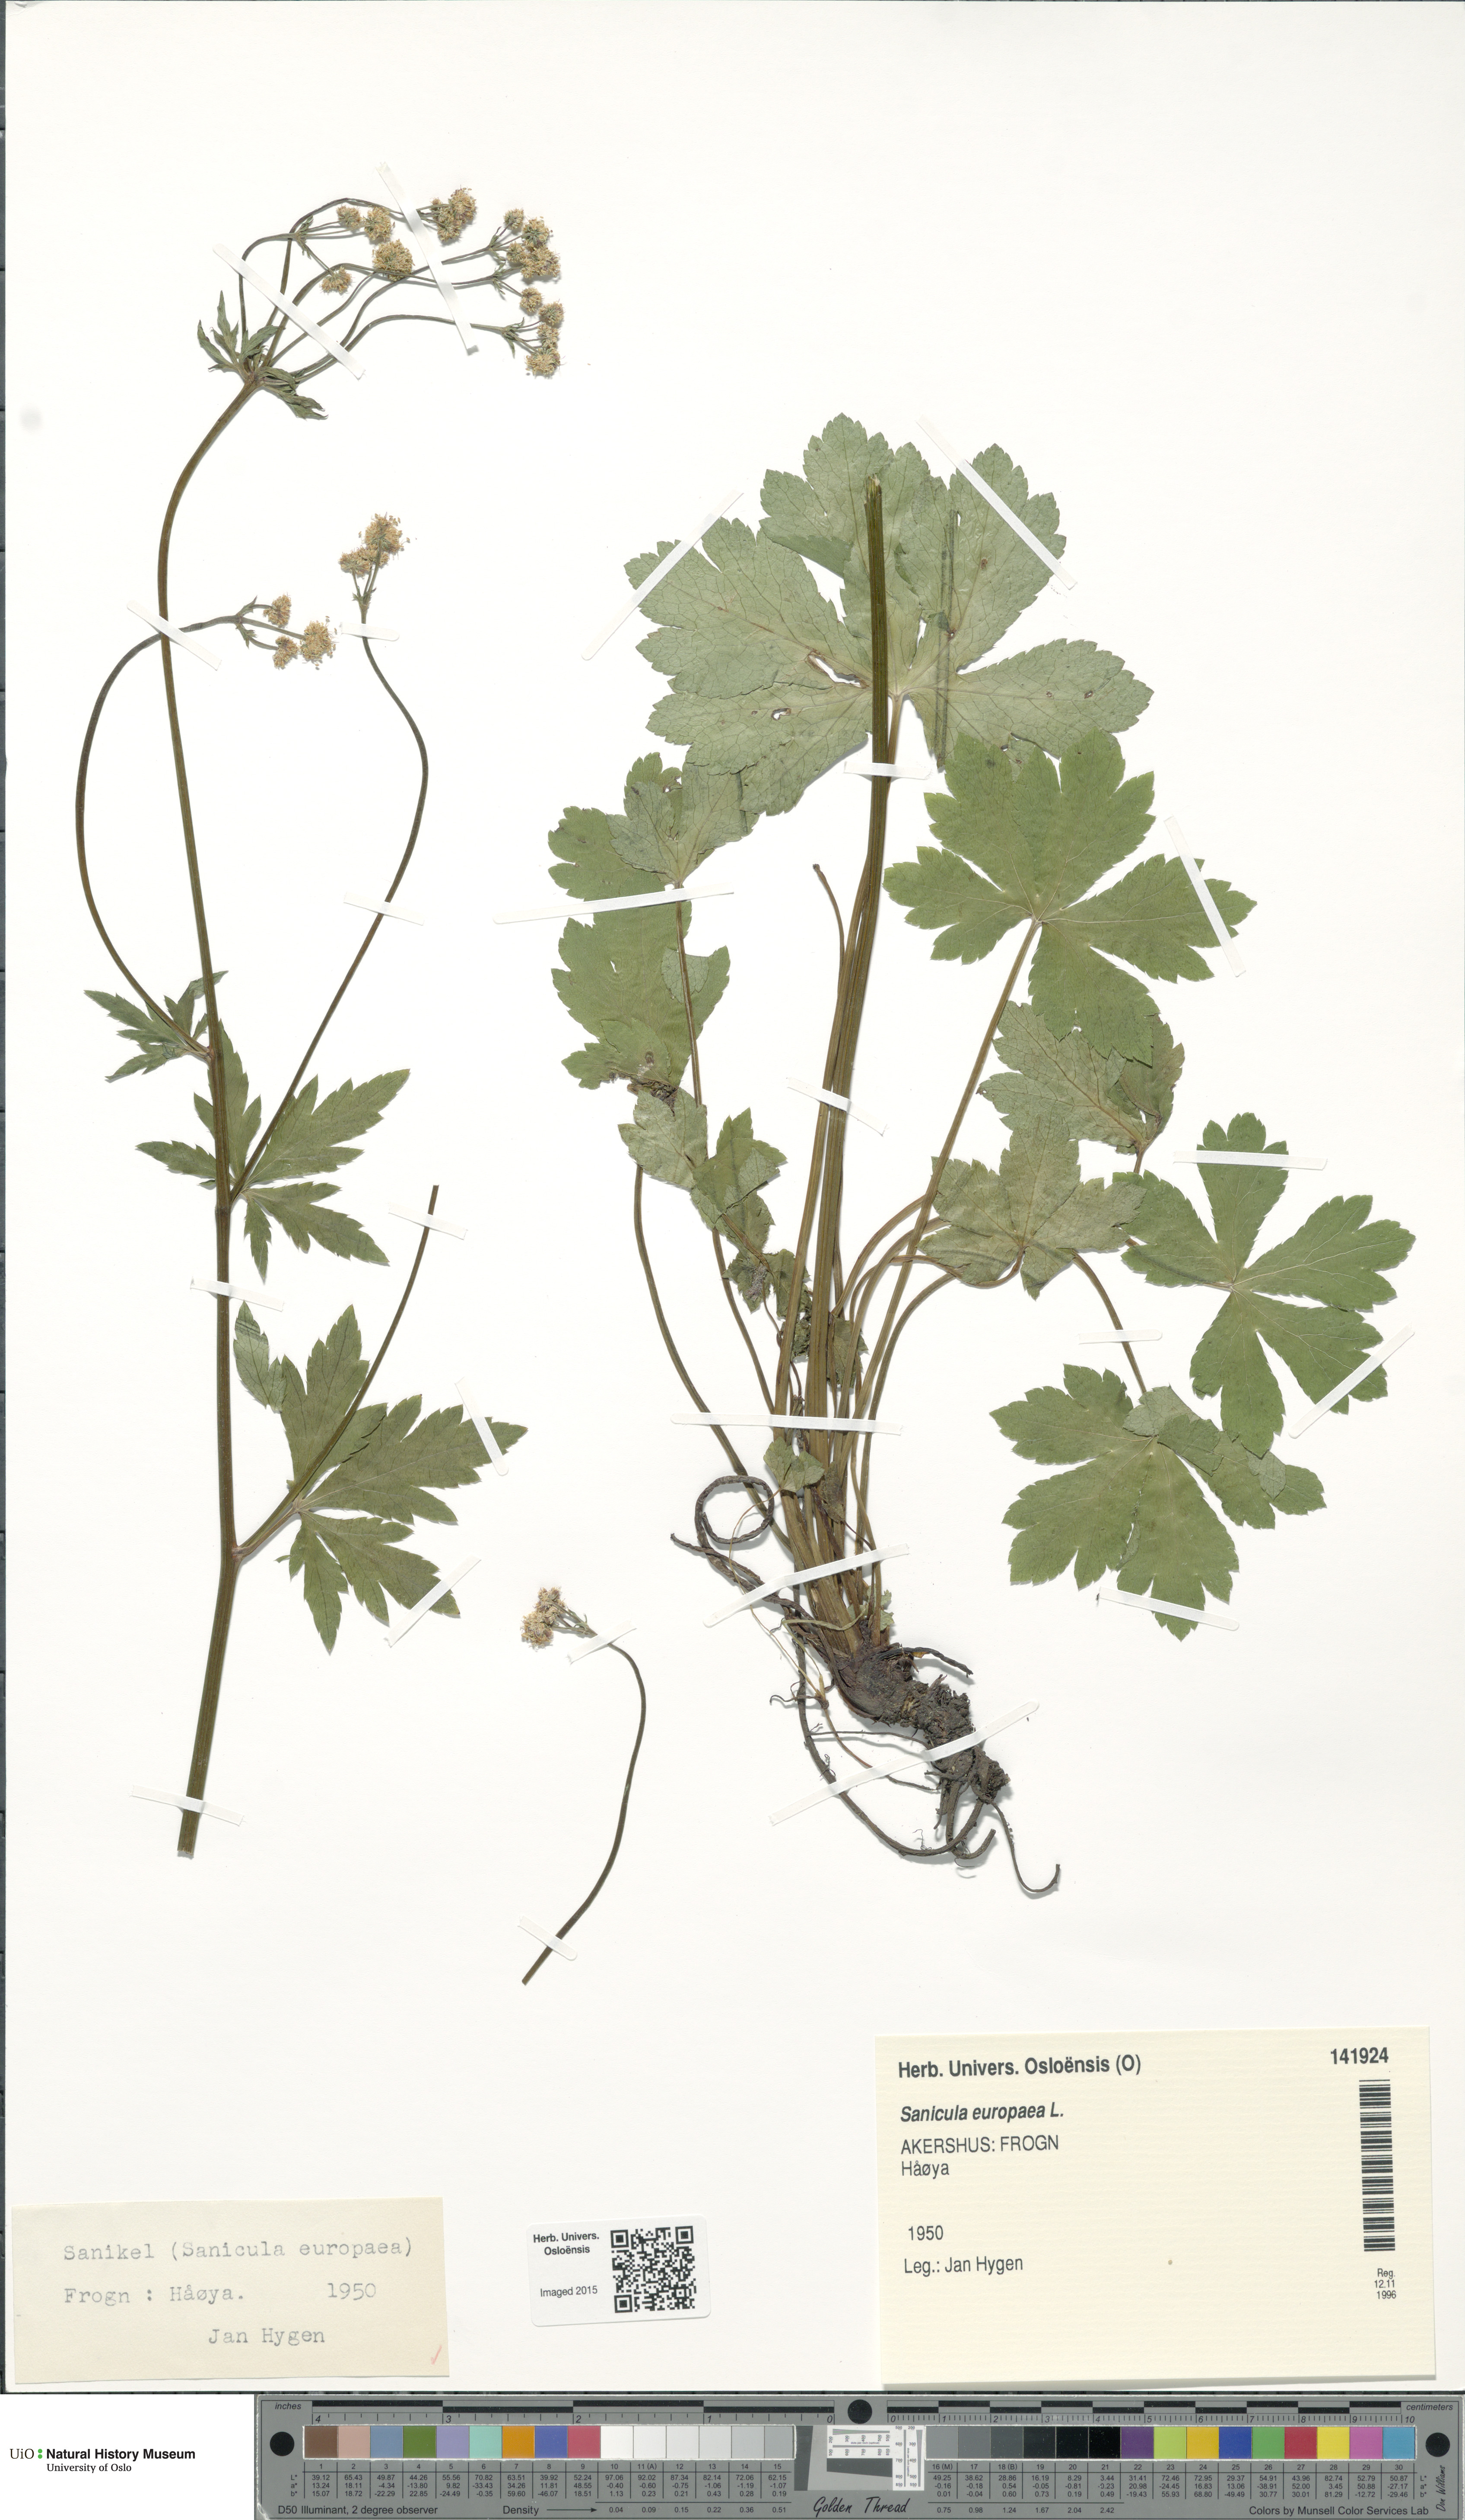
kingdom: Plantae
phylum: Tracheophyta
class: Magnoliopsida
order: Apiales
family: Apiaceae
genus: Sanicula
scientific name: Sanicula europaea
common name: Sanicle
